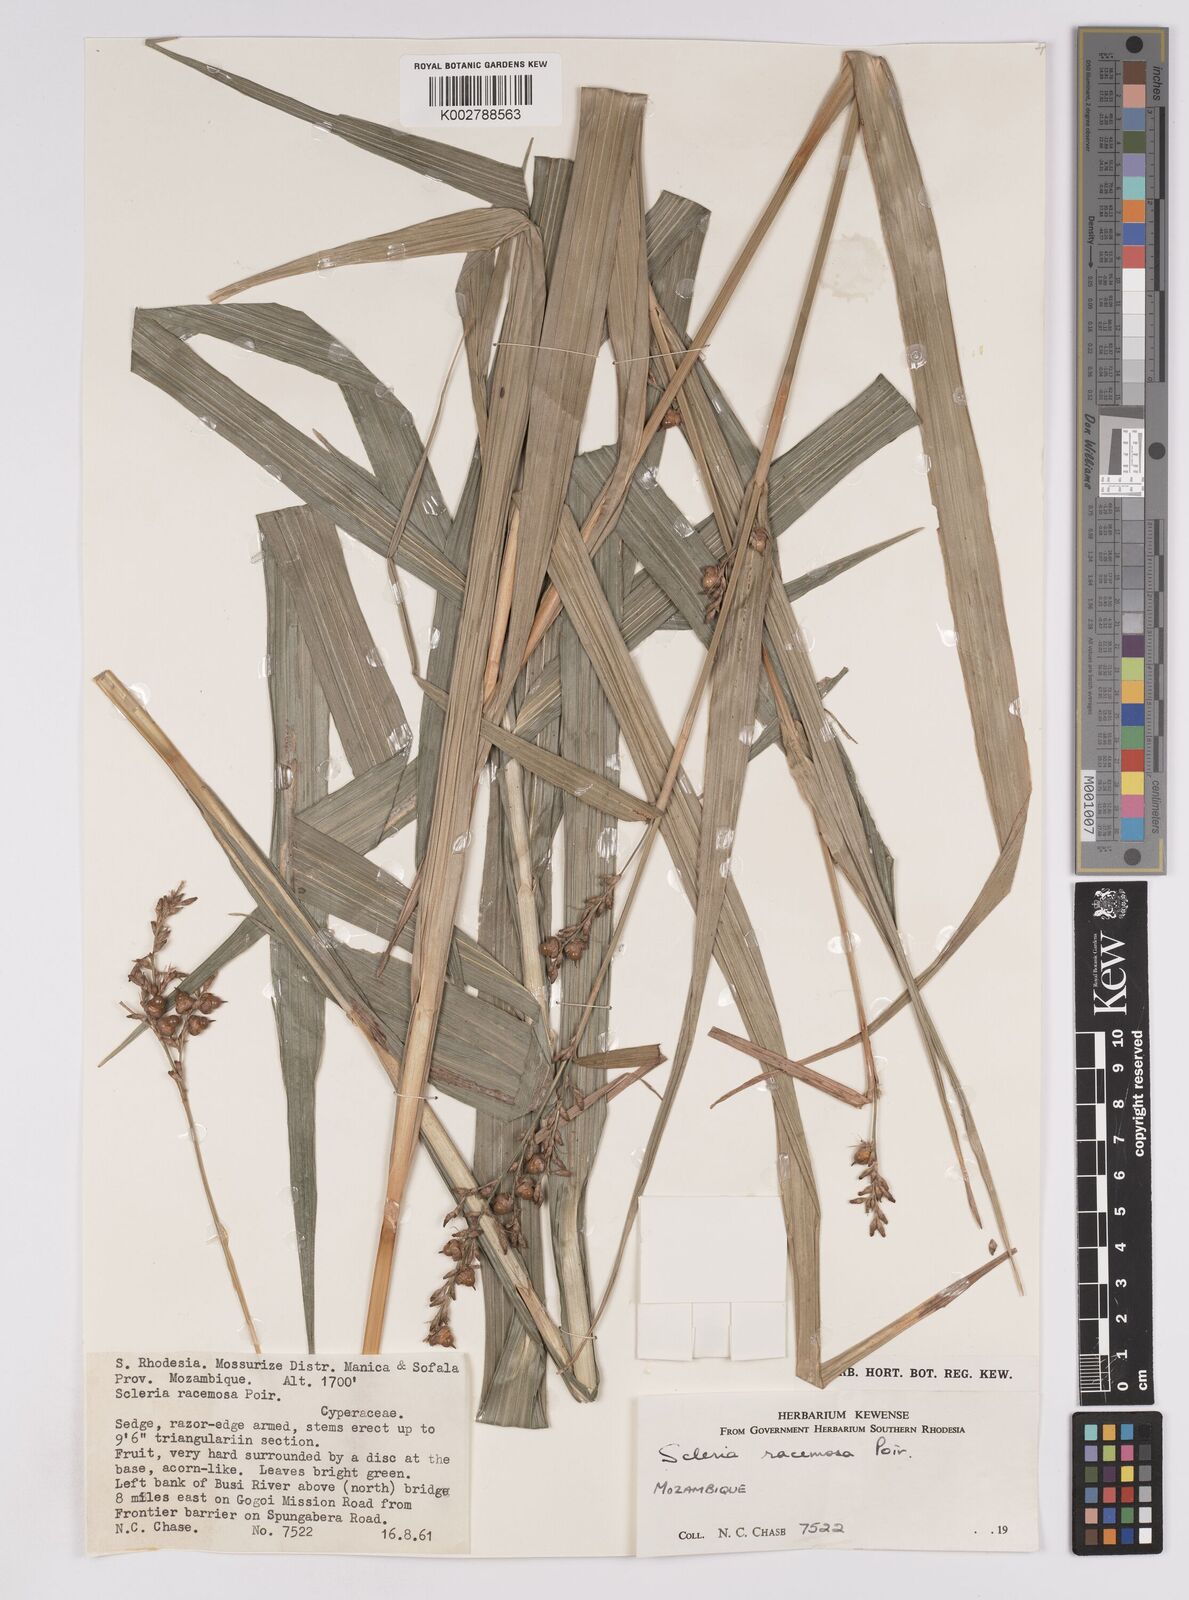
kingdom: Plantae
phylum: Tracheophyta
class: Liliopsida
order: Poales
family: Cyperaceae
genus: Scleria
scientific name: Scleria racemosa
